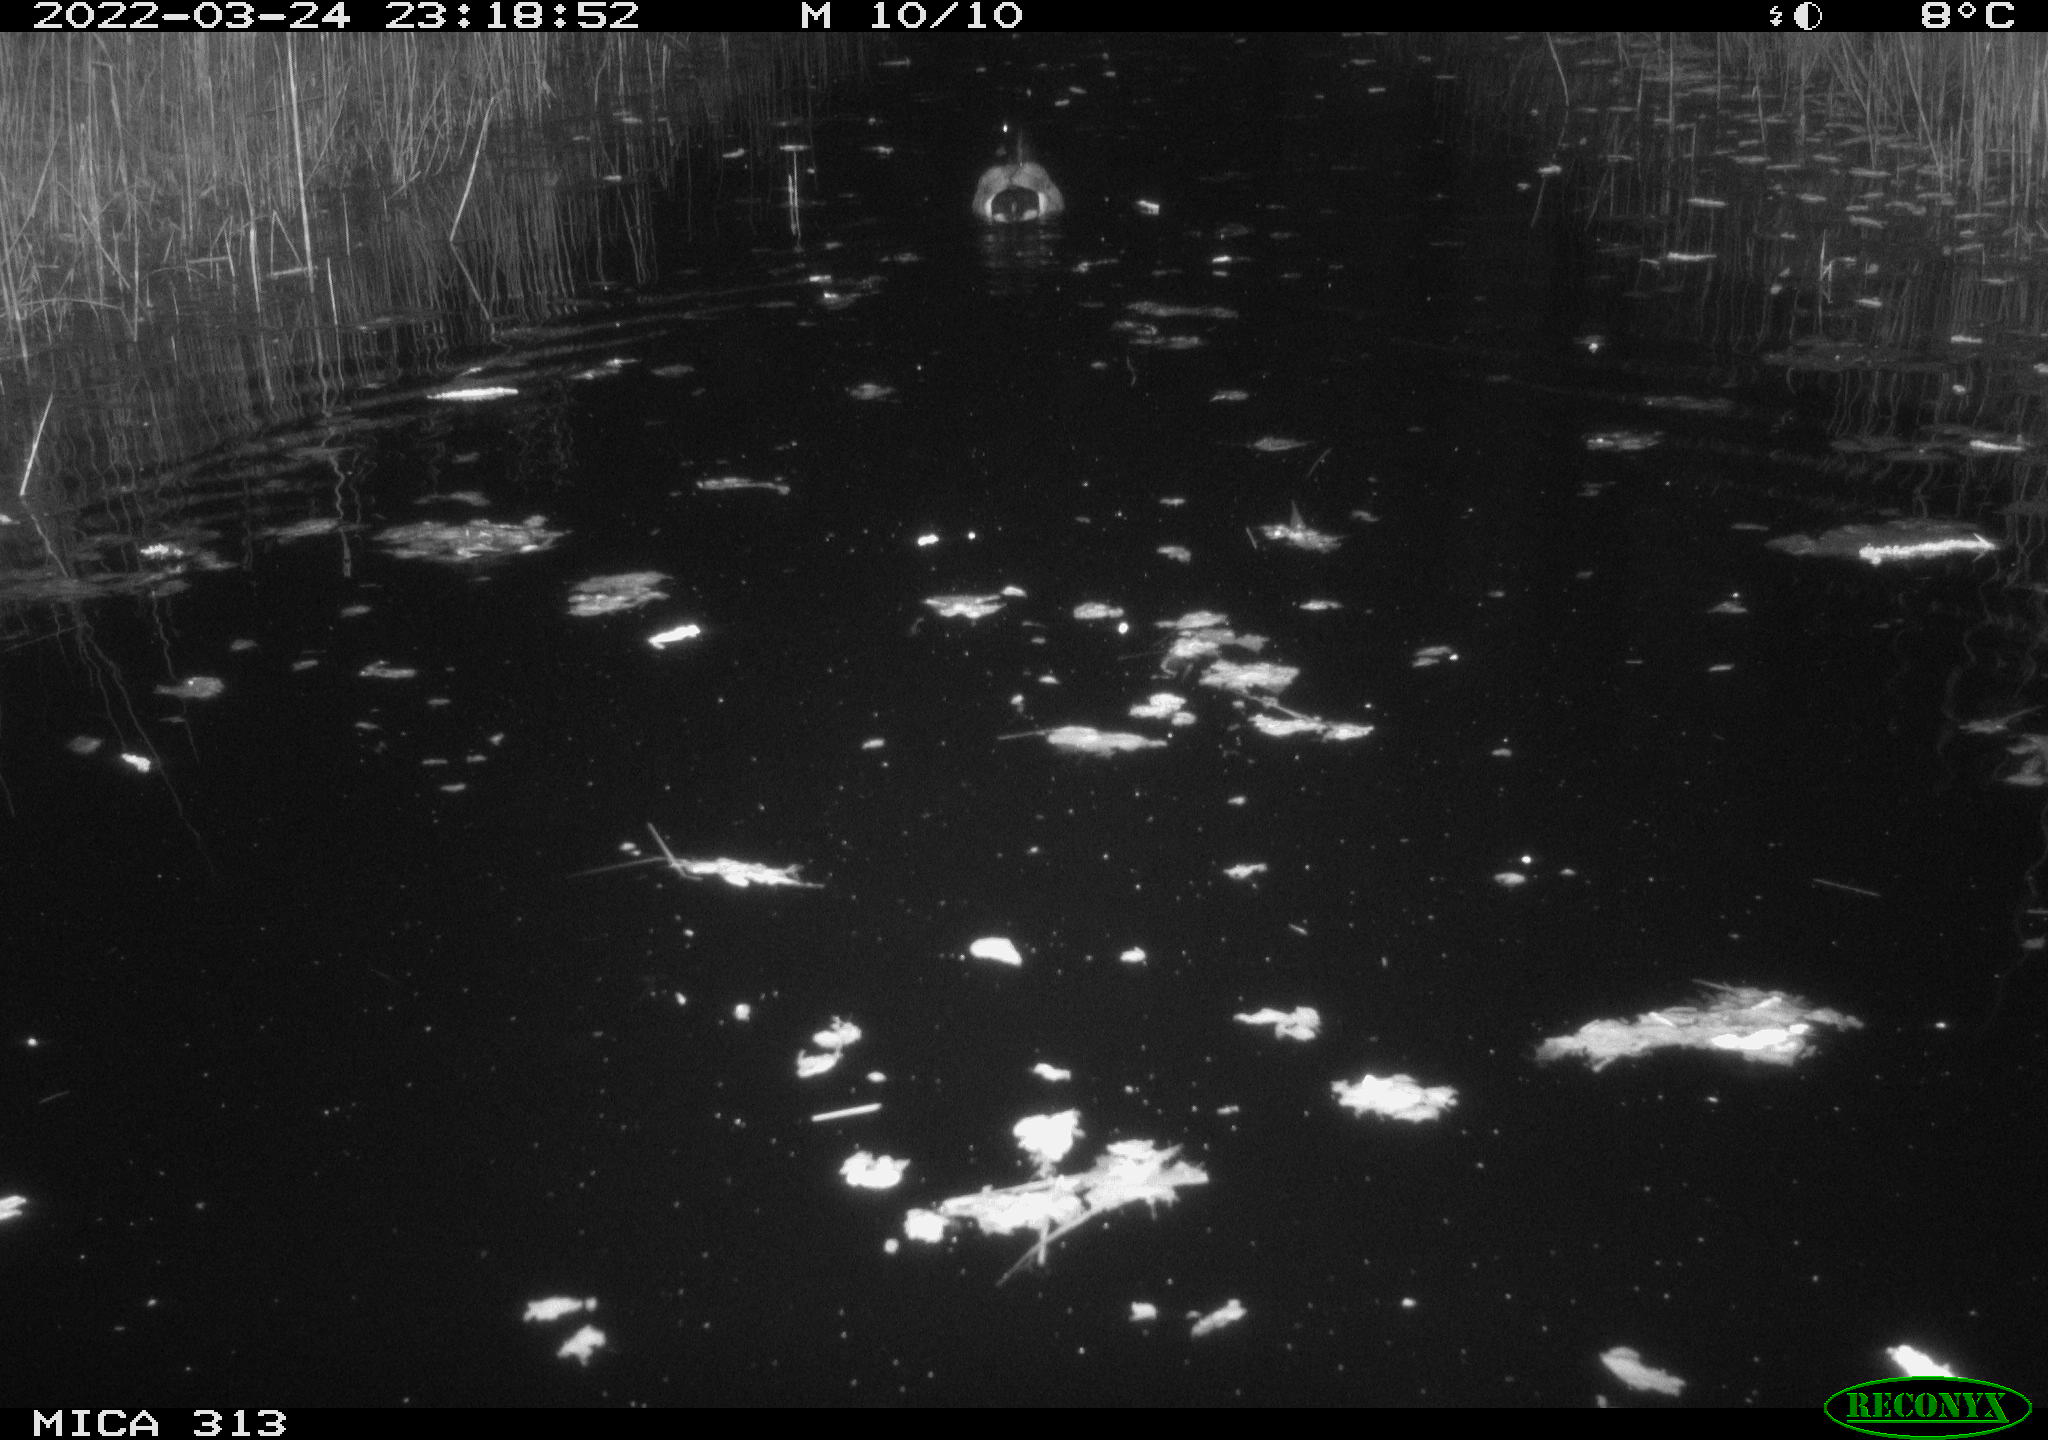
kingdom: Animalia
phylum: Chordata
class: Aves
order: Anseriformes
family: Anatidae
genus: Anas
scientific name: Anas platyrhynchos
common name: Mallard
